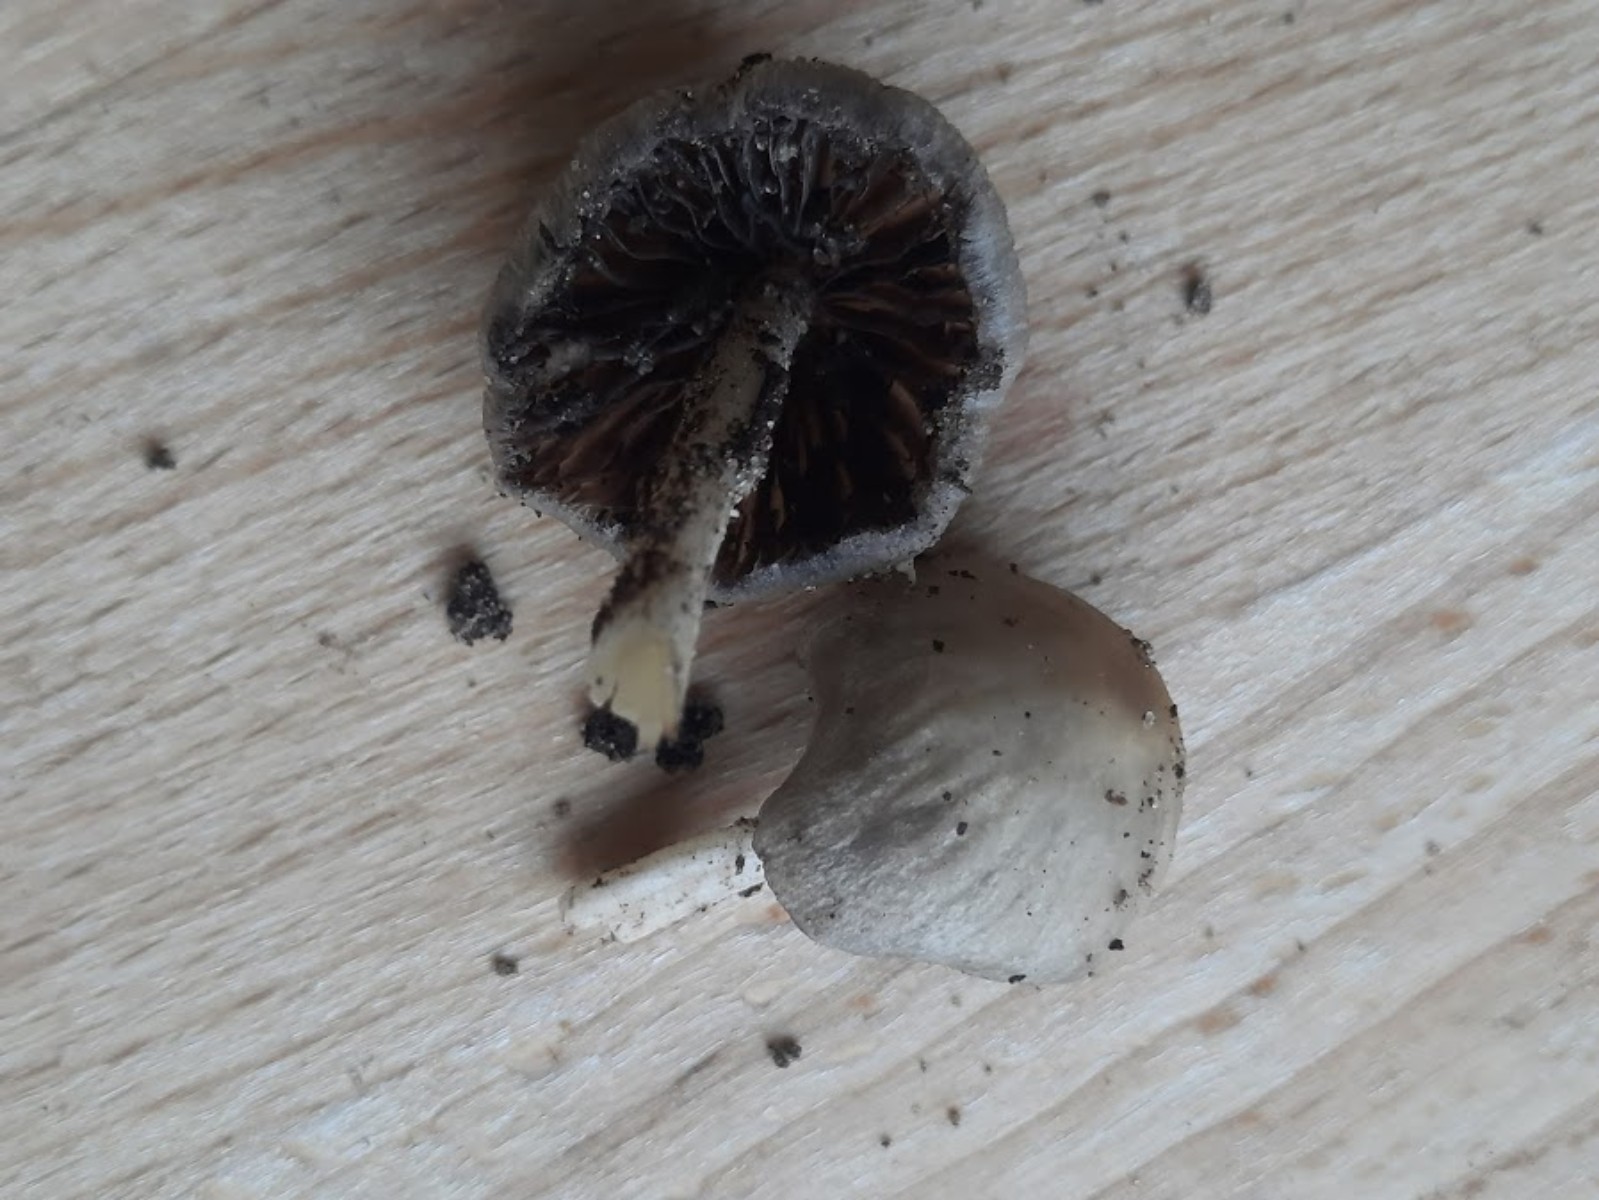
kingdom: Fungi
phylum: Basidiomycota
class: Agaricomycetes
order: Agaricales
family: Psathyrellaceae
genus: Psathyrella
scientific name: Psathyrella
